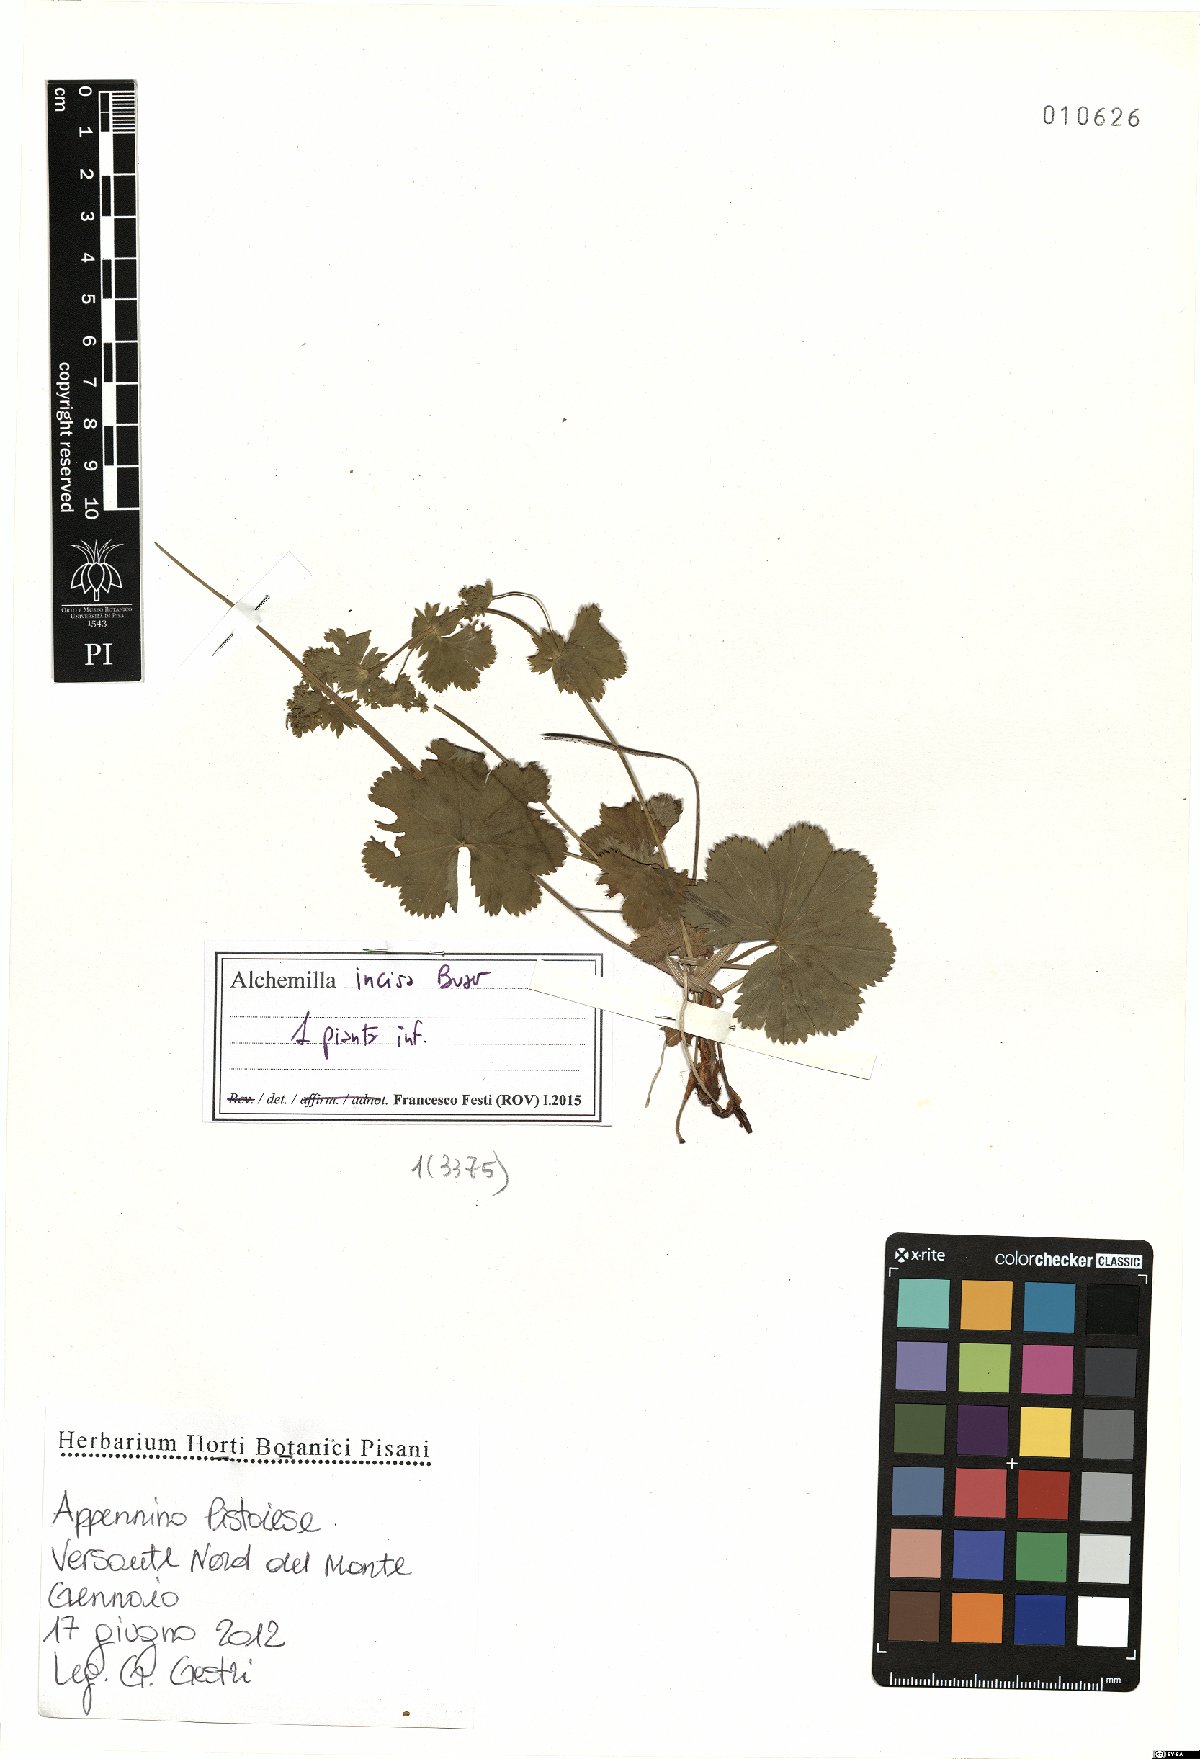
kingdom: Plantae
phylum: Tracheophyta
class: Magnoliopsida
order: Rosales
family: Rosaceae
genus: Alchemilla
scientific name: Alchemilla incisa
